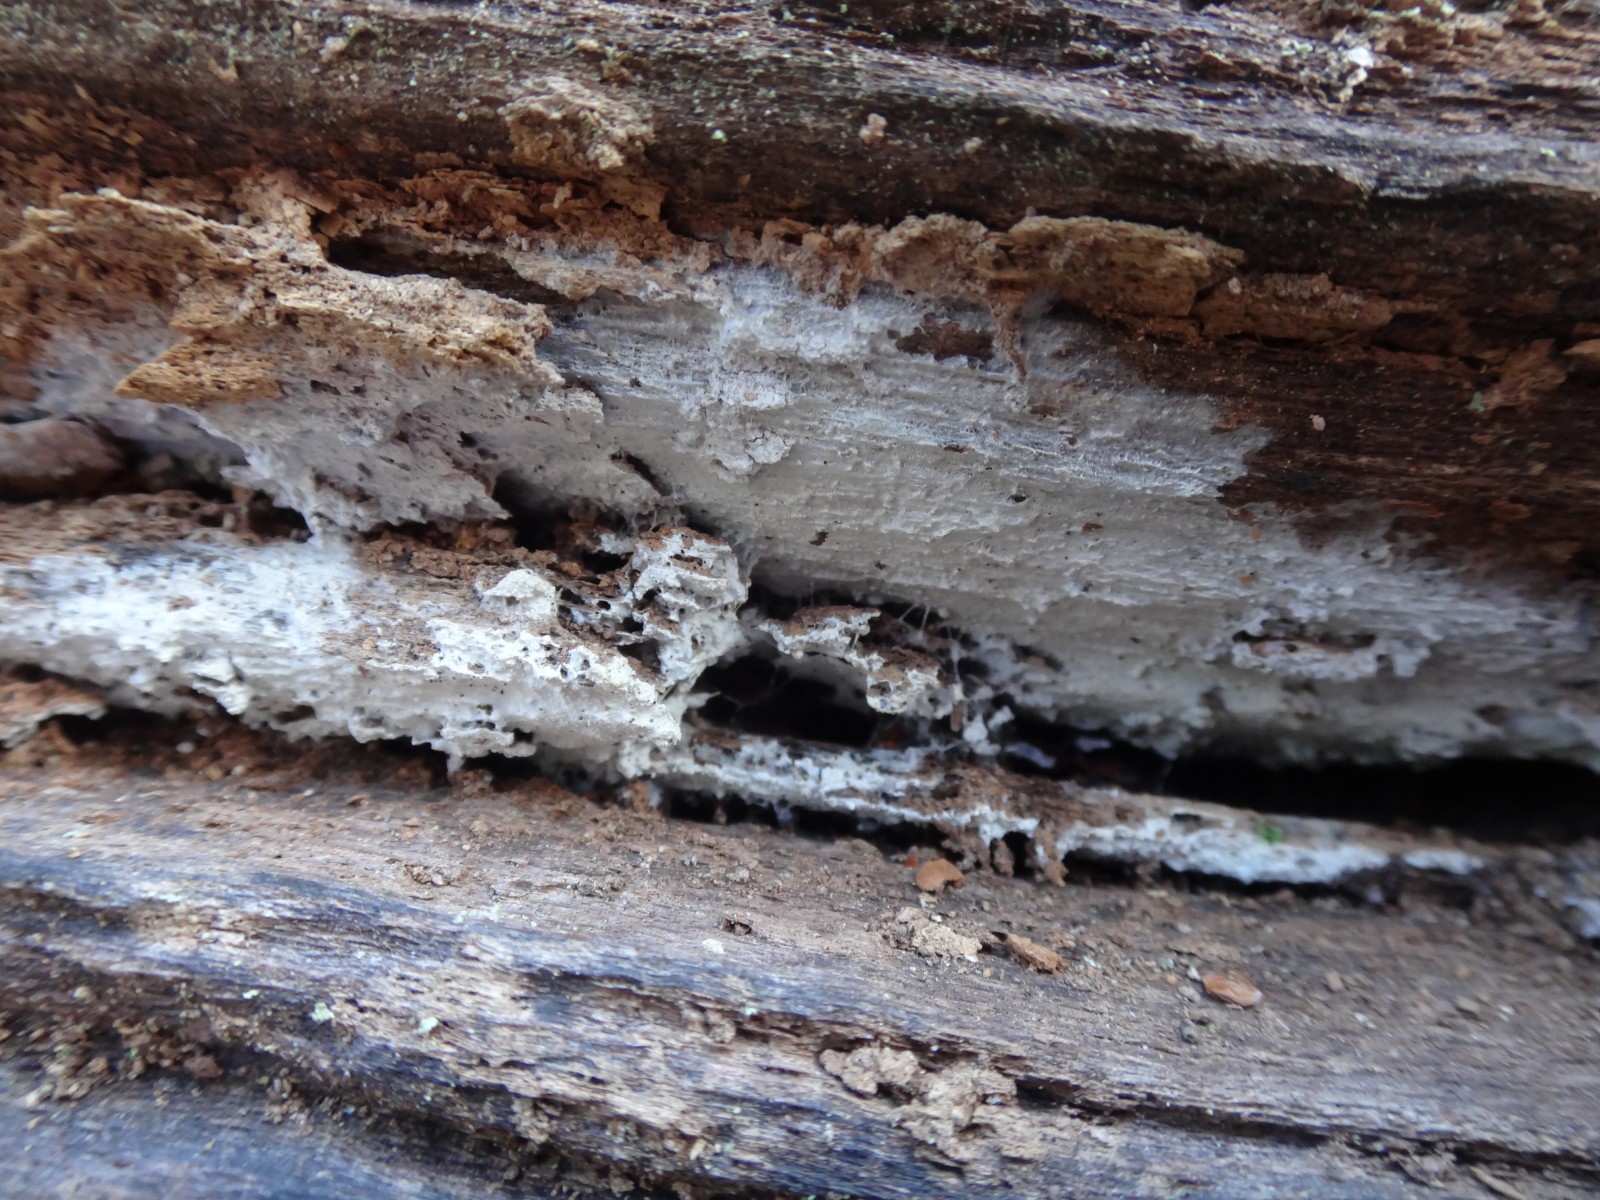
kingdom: Fungi
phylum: Basidiomycota
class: Agaricomycetes
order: Cantharellales
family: Hydnaceae
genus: Sistotrema
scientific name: Sistotrema brinkmannii
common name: bønnesporet kroneskorpe
